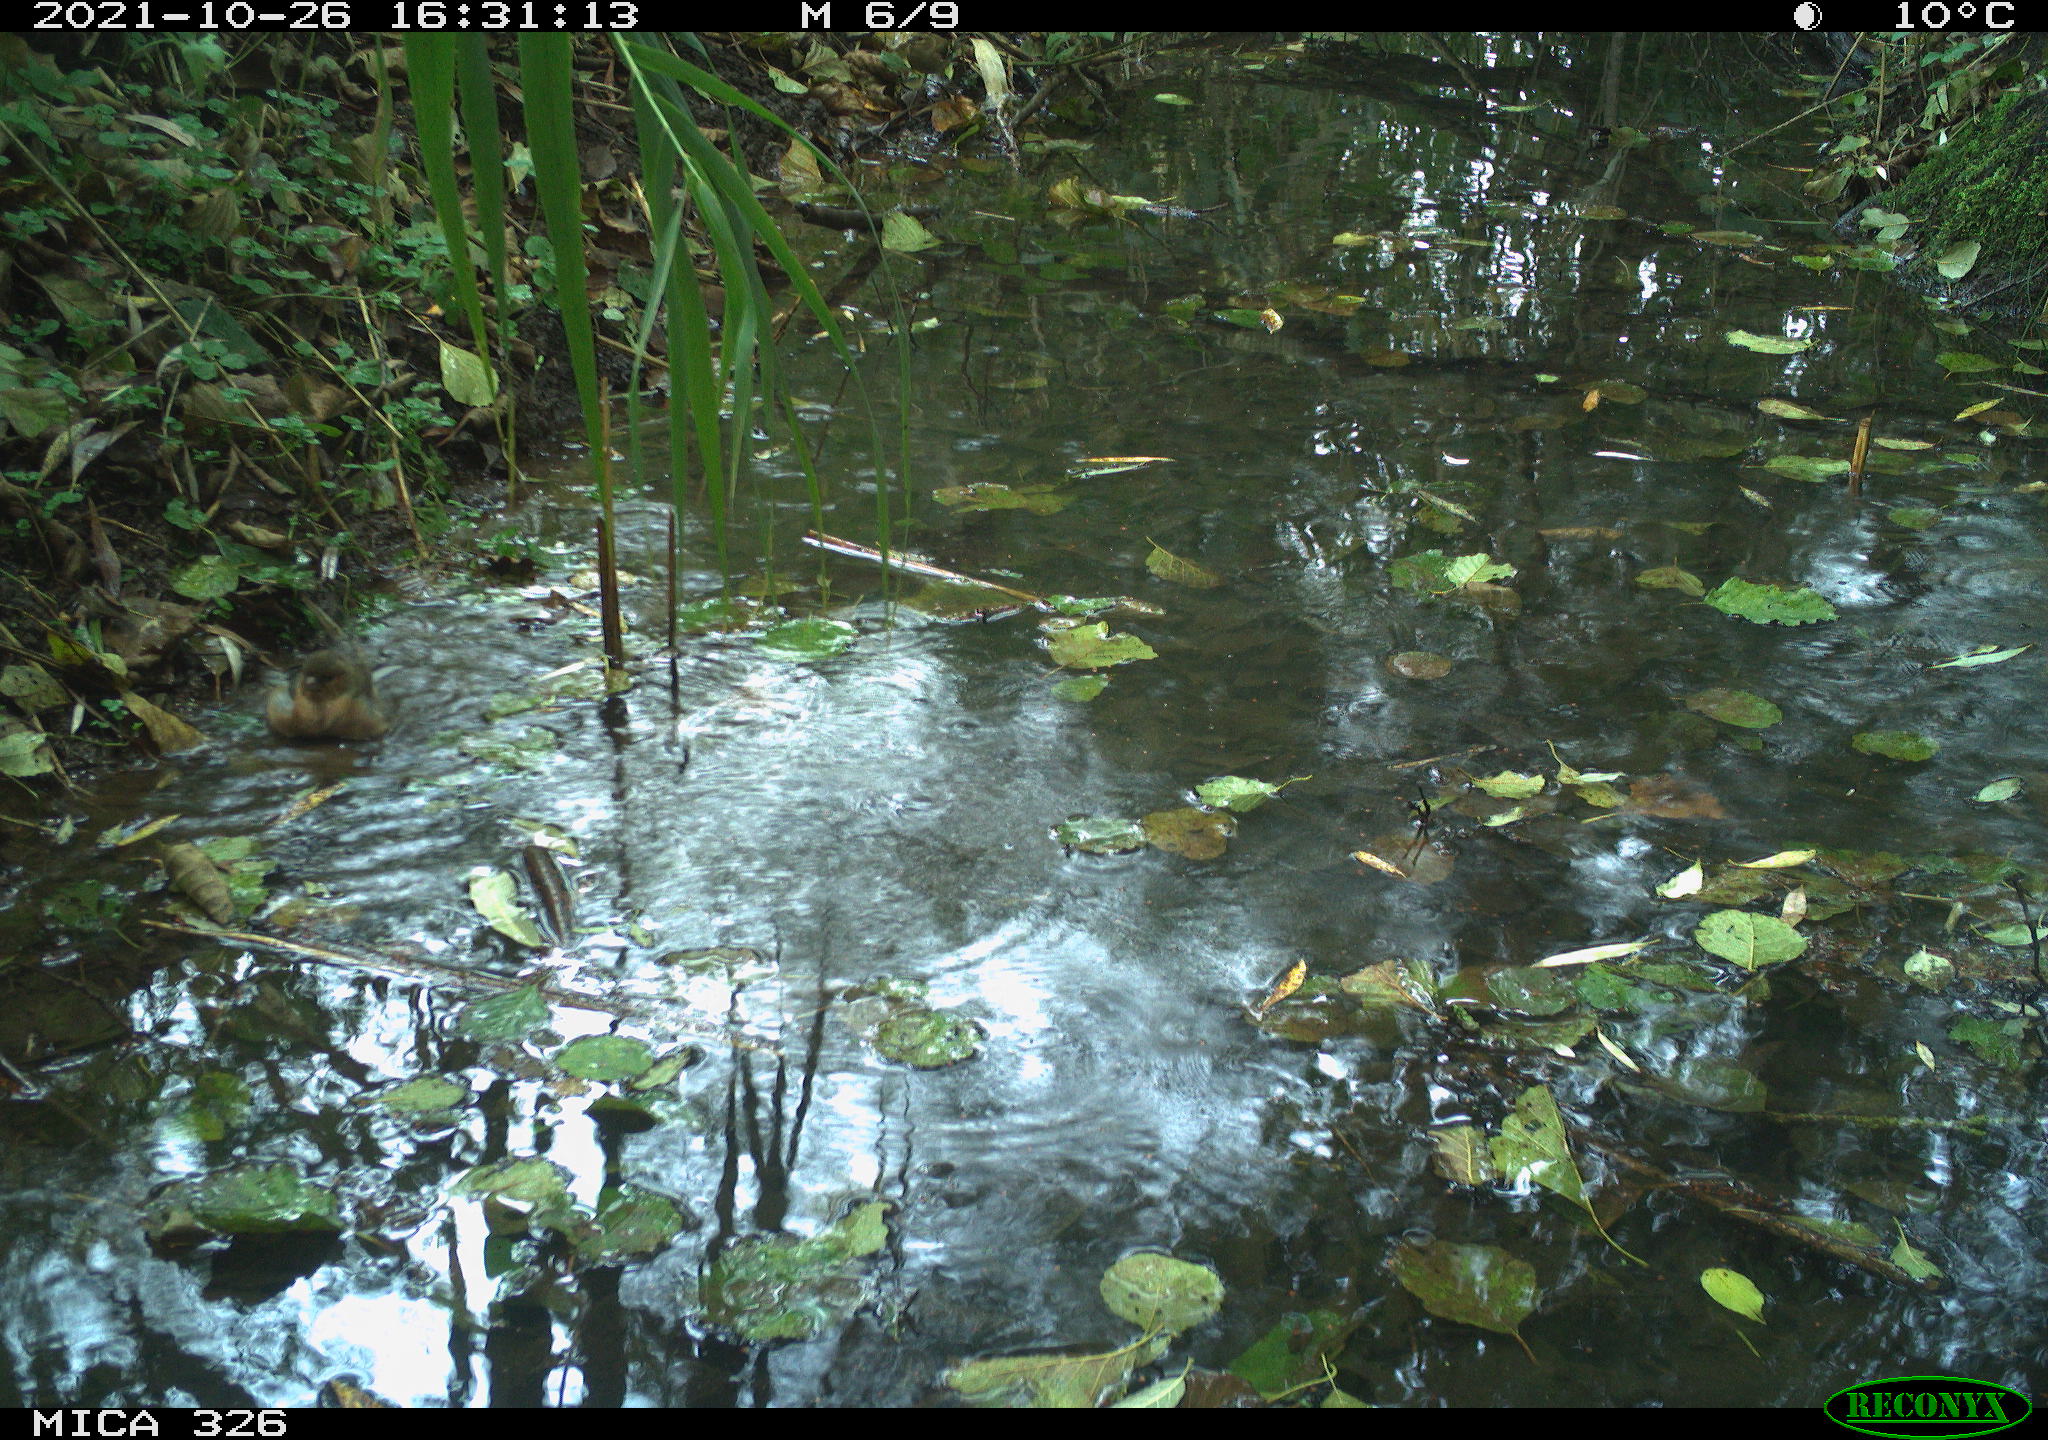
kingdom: Animalia
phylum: Chordata
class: Aves
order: Passeriformes
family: Fringillidae
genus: Fringilla
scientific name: Fringilla coelebs
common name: Common chaffinch
